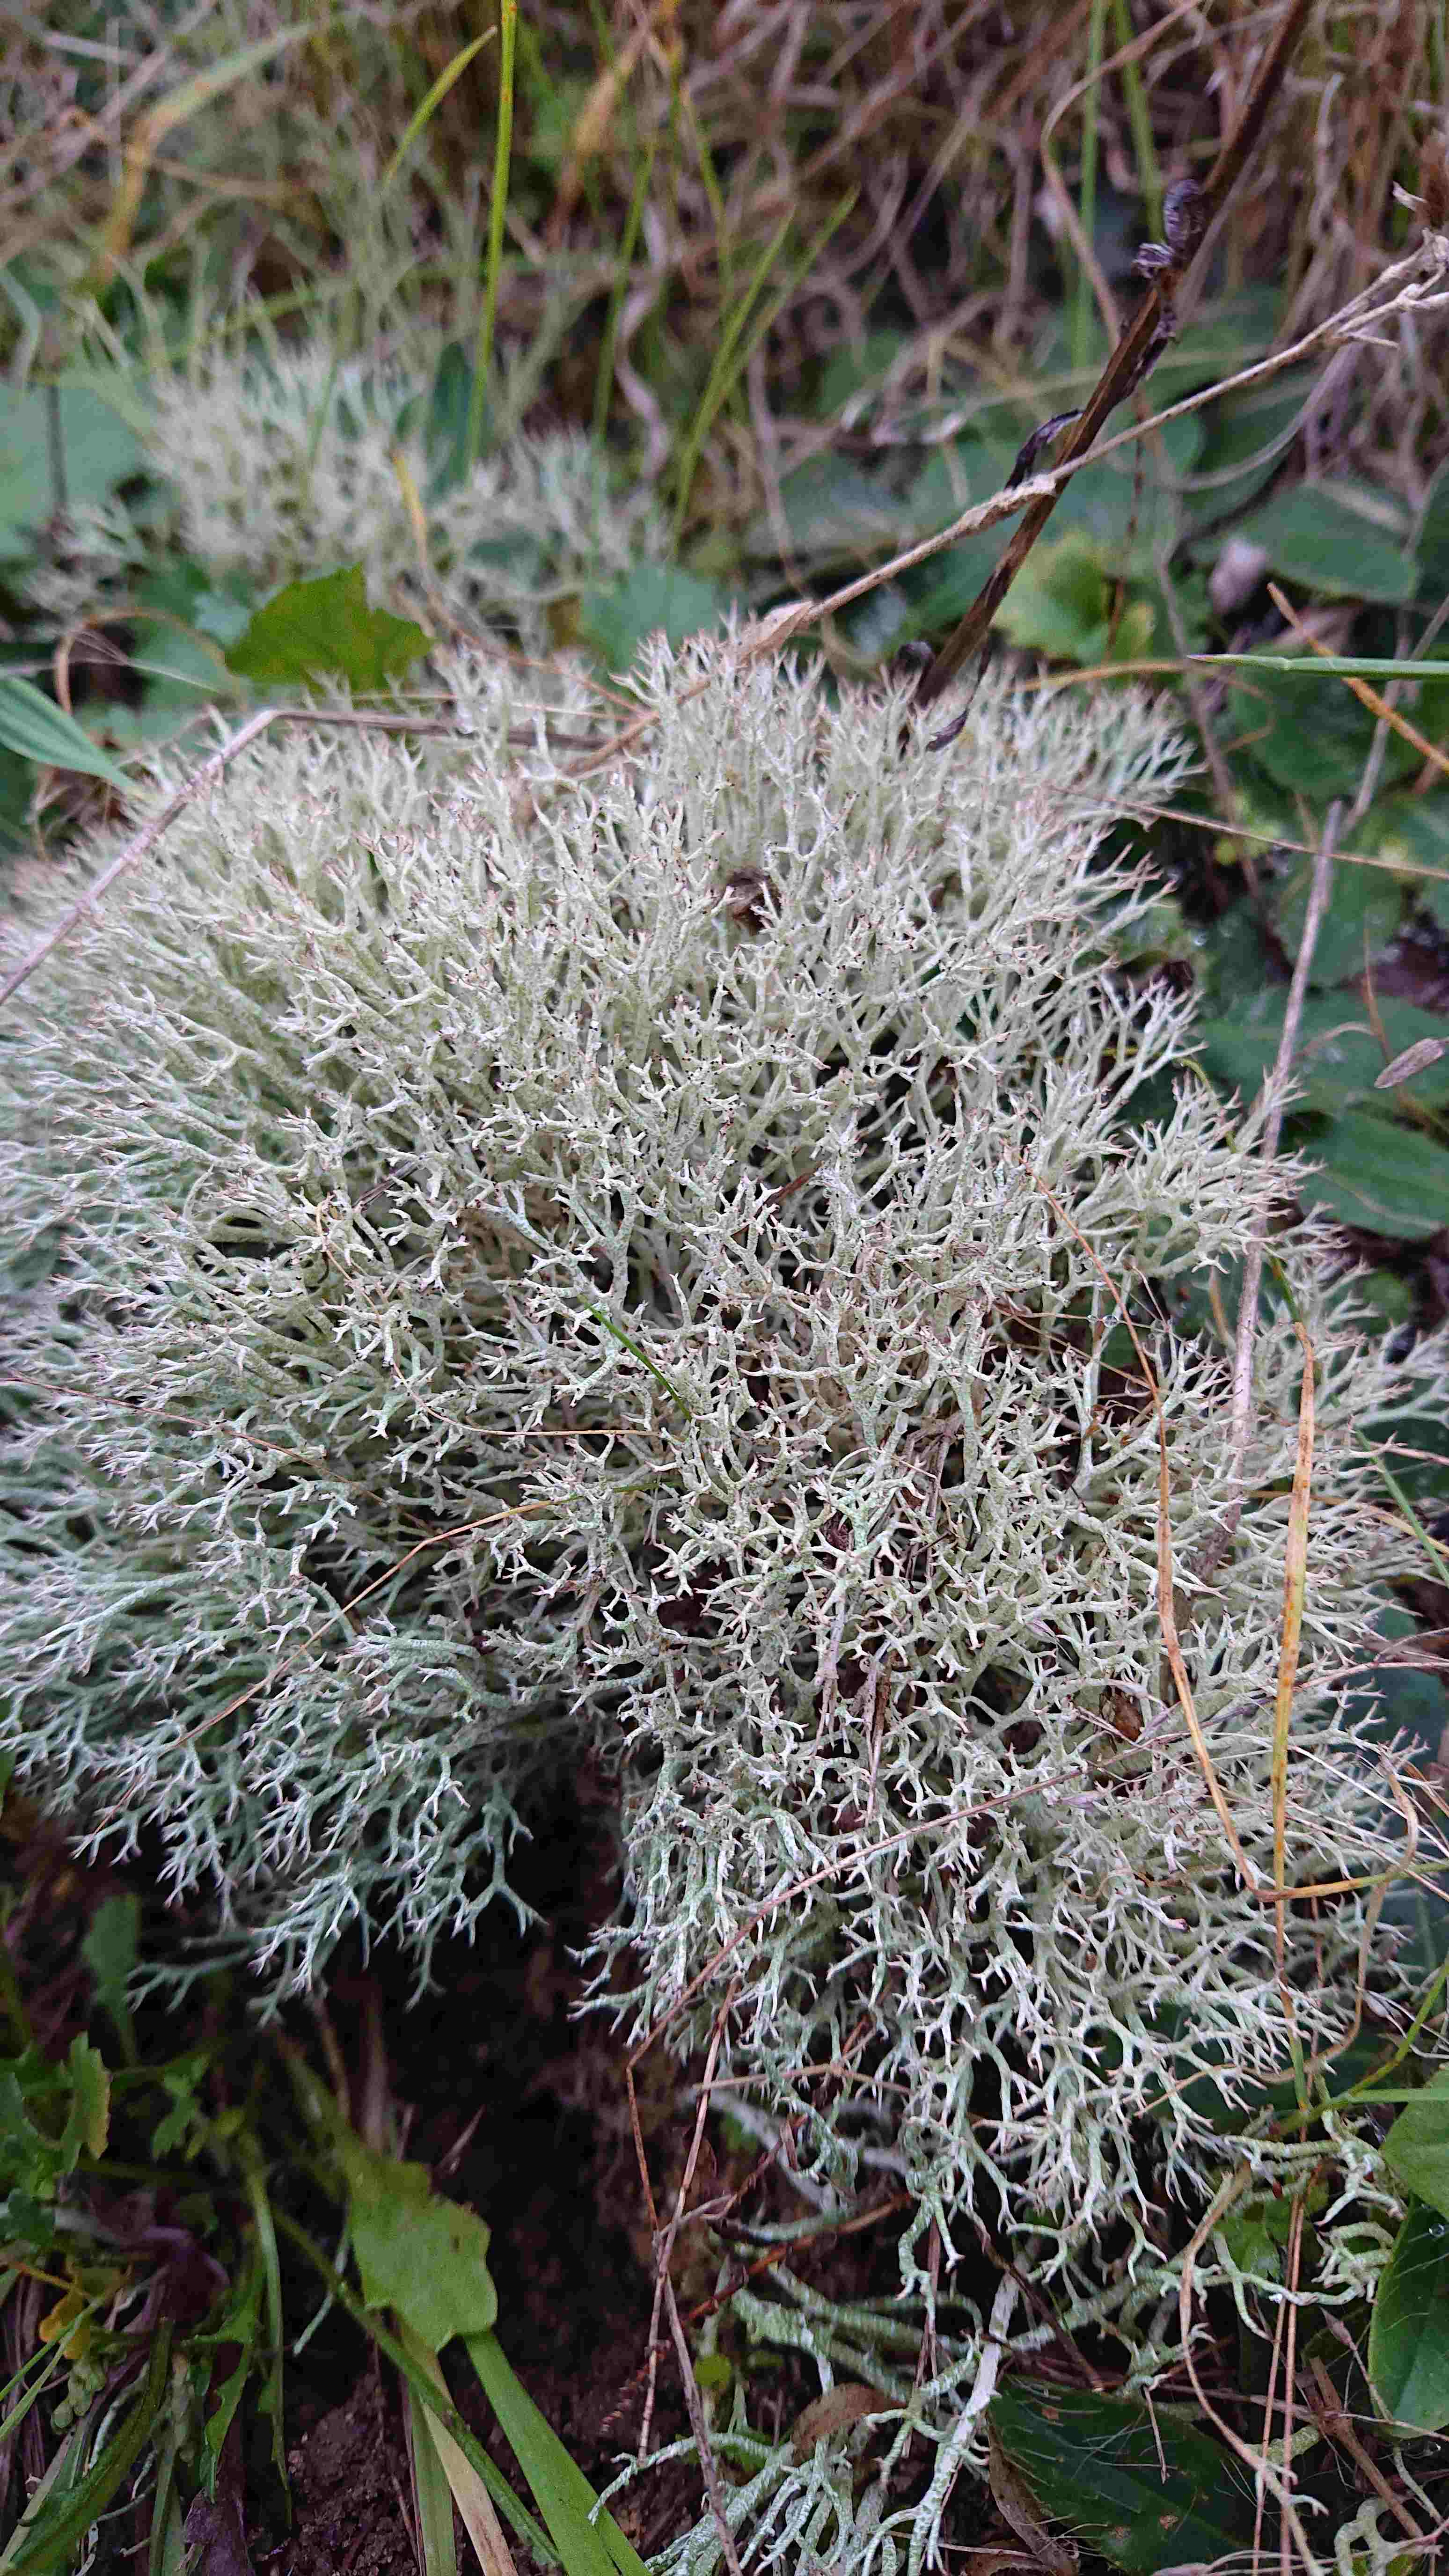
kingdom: Fungi
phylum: Ascomycota
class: Lecanoromycetes
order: Lecanorales
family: Cladoniaceae
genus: Cladonia
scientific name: Cladonia rangiformis
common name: spættet bægerlav
